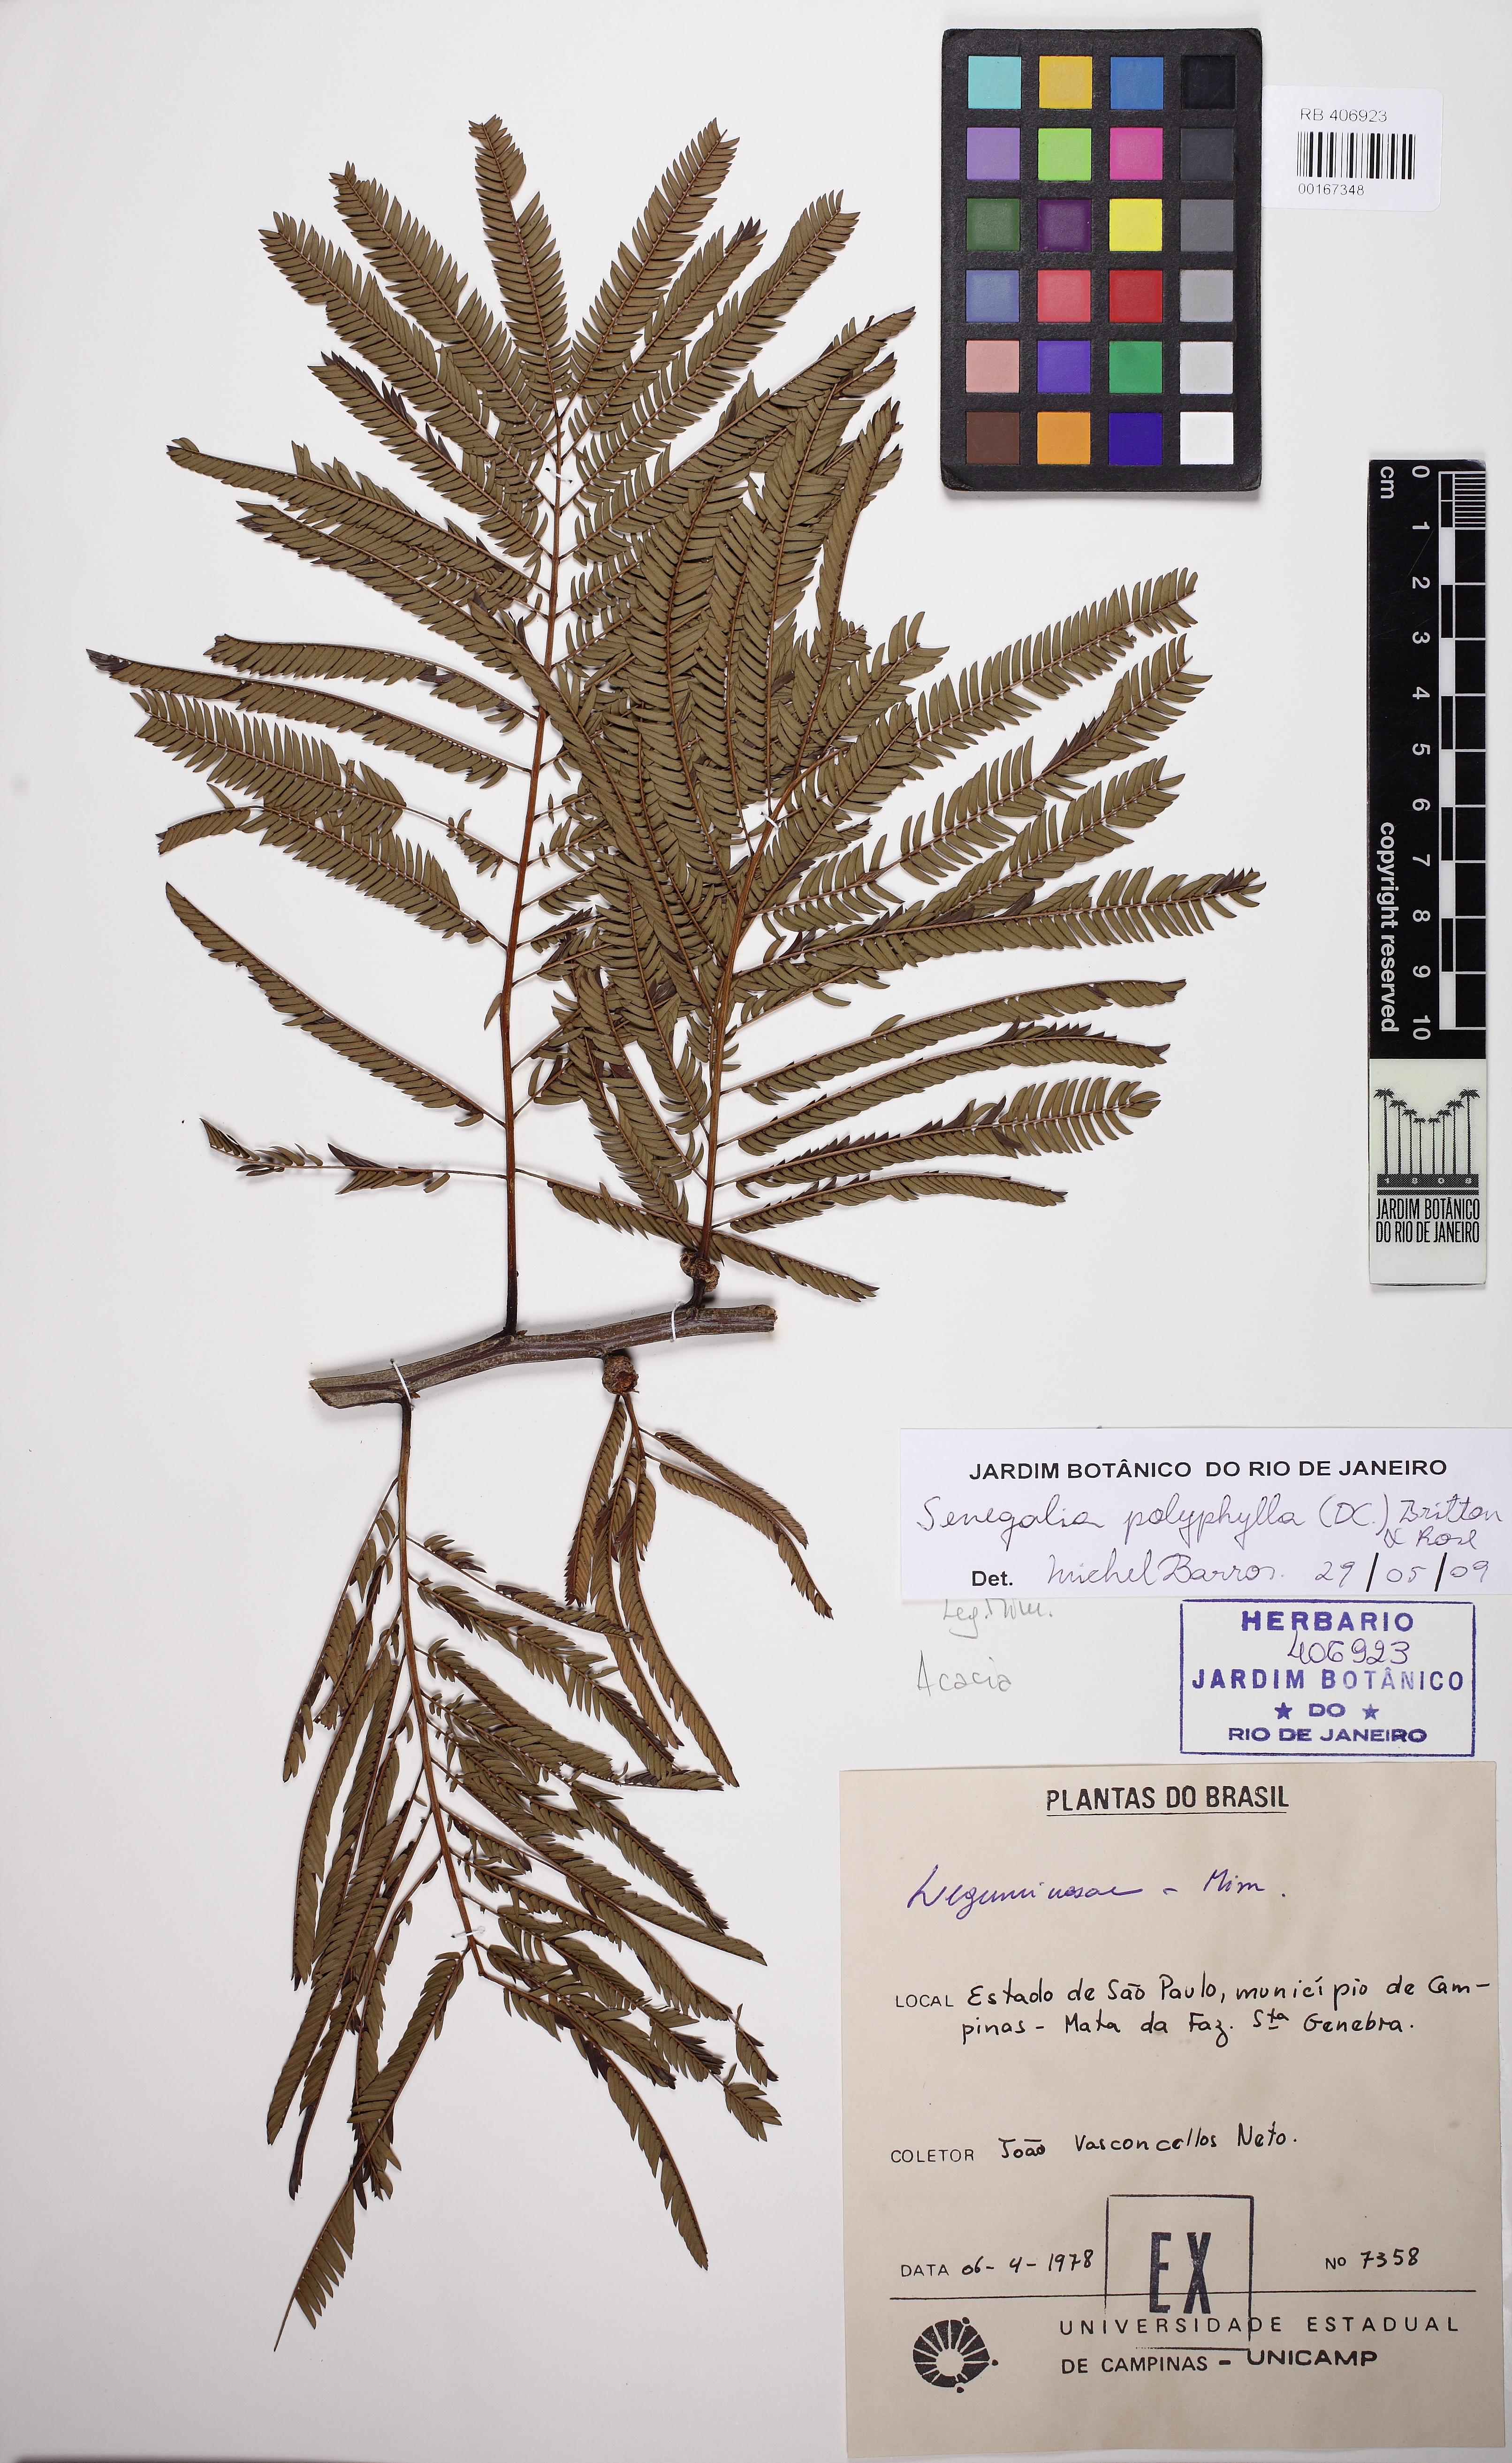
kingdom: Plantae
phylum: Tracheophyta
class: Magnoliopsida
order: Fabales
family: Fabaceae
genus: Senegalia
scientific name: Senegalia loretensis
